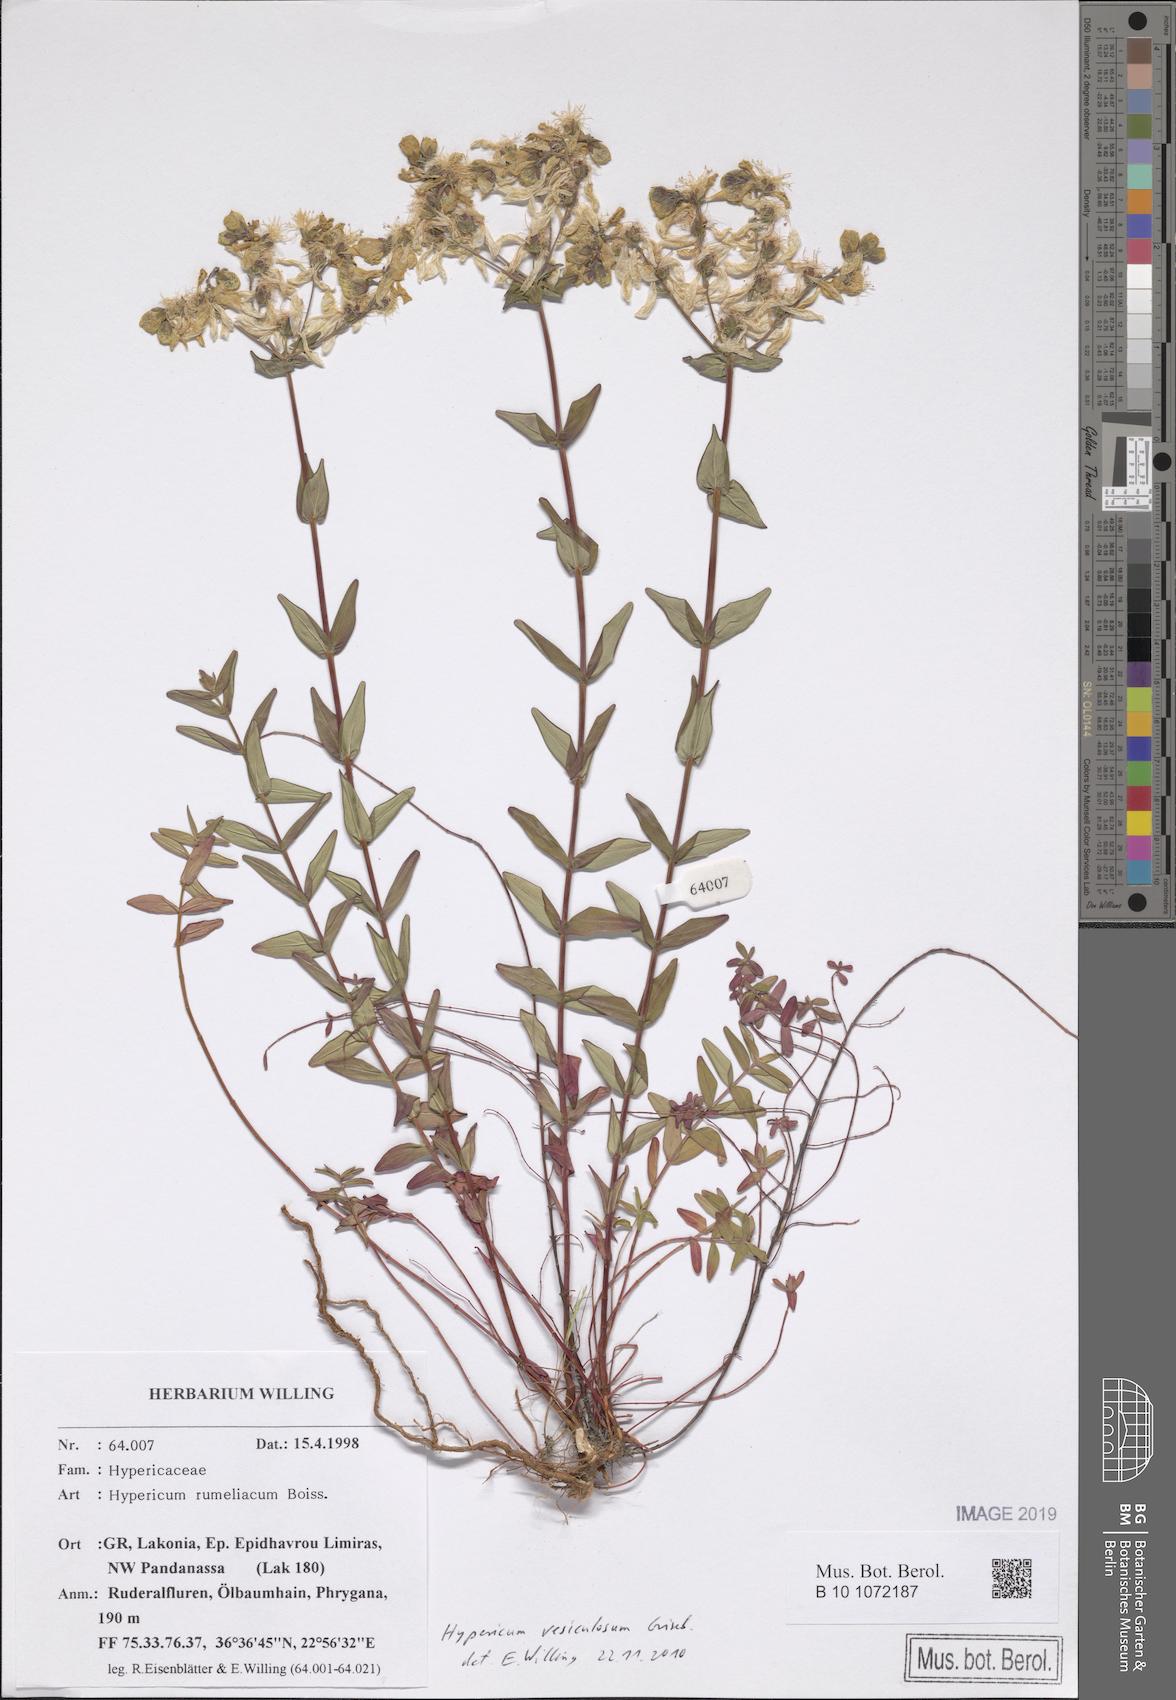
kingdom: Plantae
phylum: Tracheophyta
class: Magnoliopsida
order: Malpighiales
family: Hypericaceae
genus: Hypericum
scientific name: Hypericum perfoliatum
